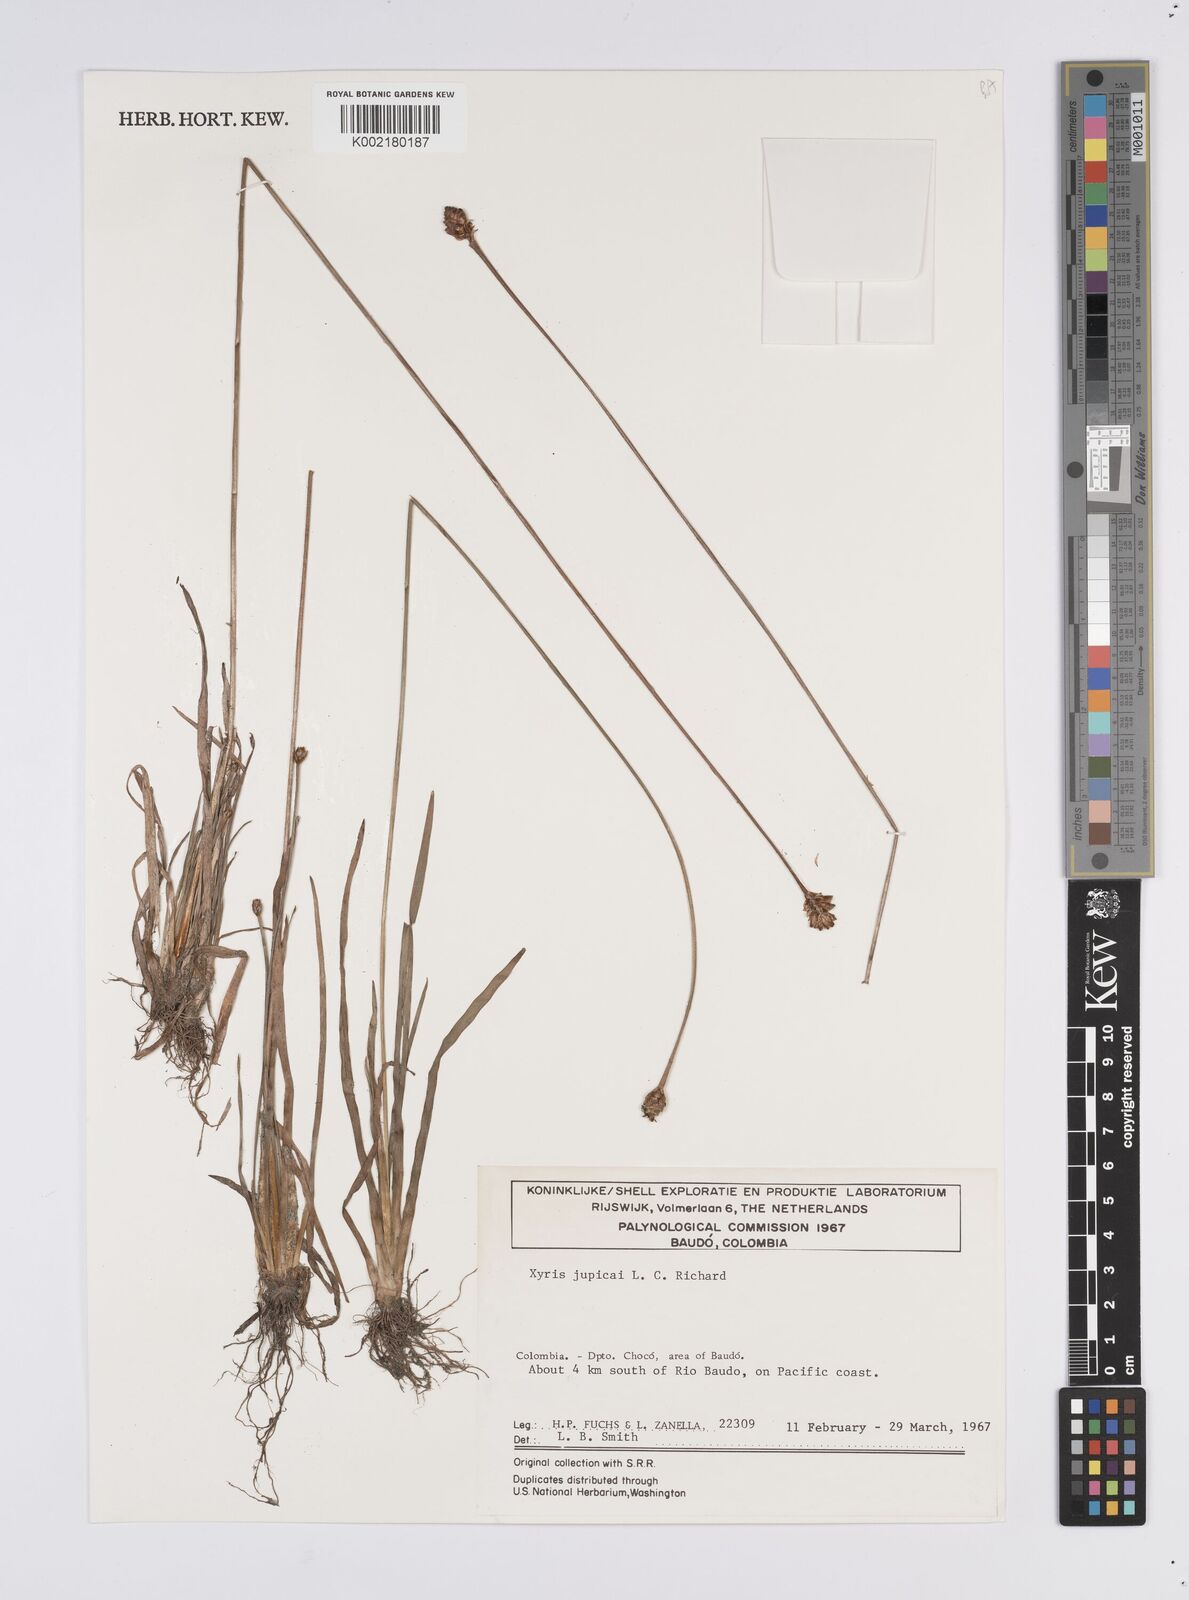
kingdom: Plantae
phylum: Tracheophyta
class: Liliopsida
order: Poales
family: Xyridaceae
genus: Xyris
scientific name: Xyris jupicai
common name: Richard's yelloweyed grass
